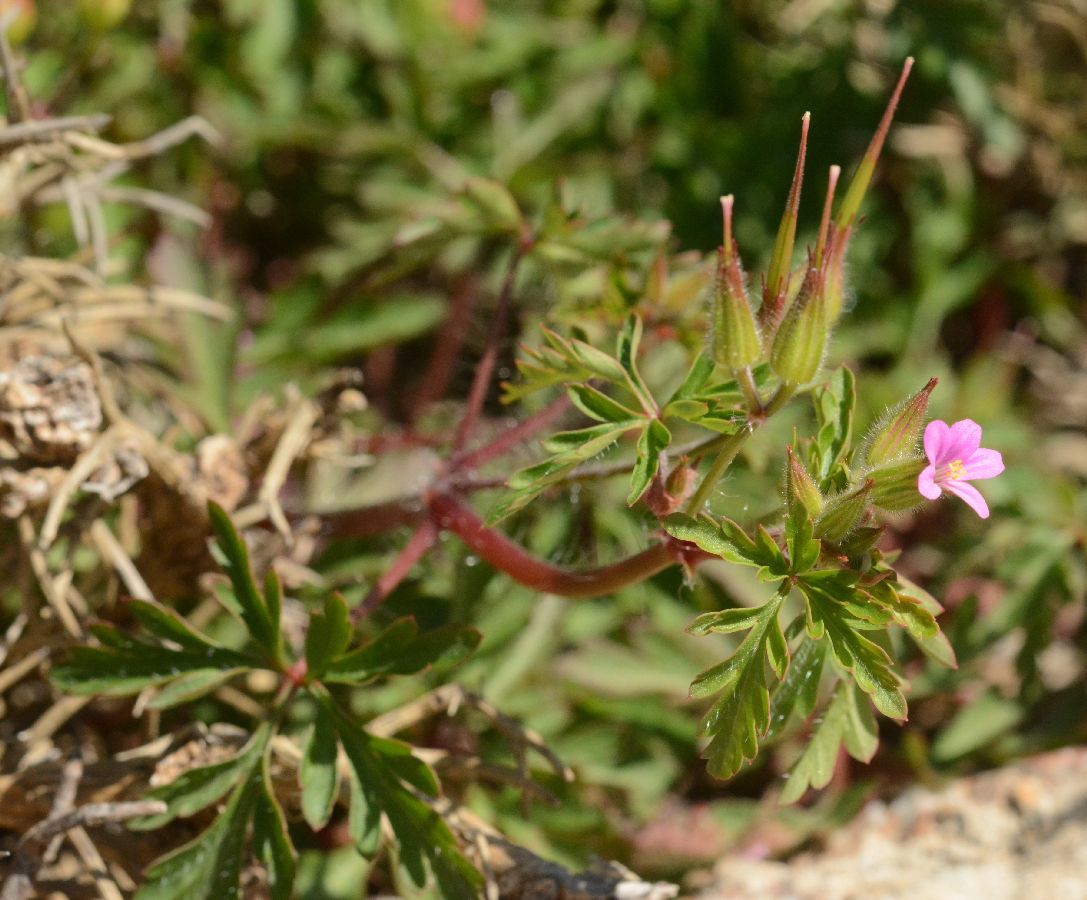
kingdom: Plantae
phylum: Tracheophyta
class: Magnoliopsida
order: Geraniales
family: Geraniaceae
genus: Geranium
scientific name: Geranium purpureum
